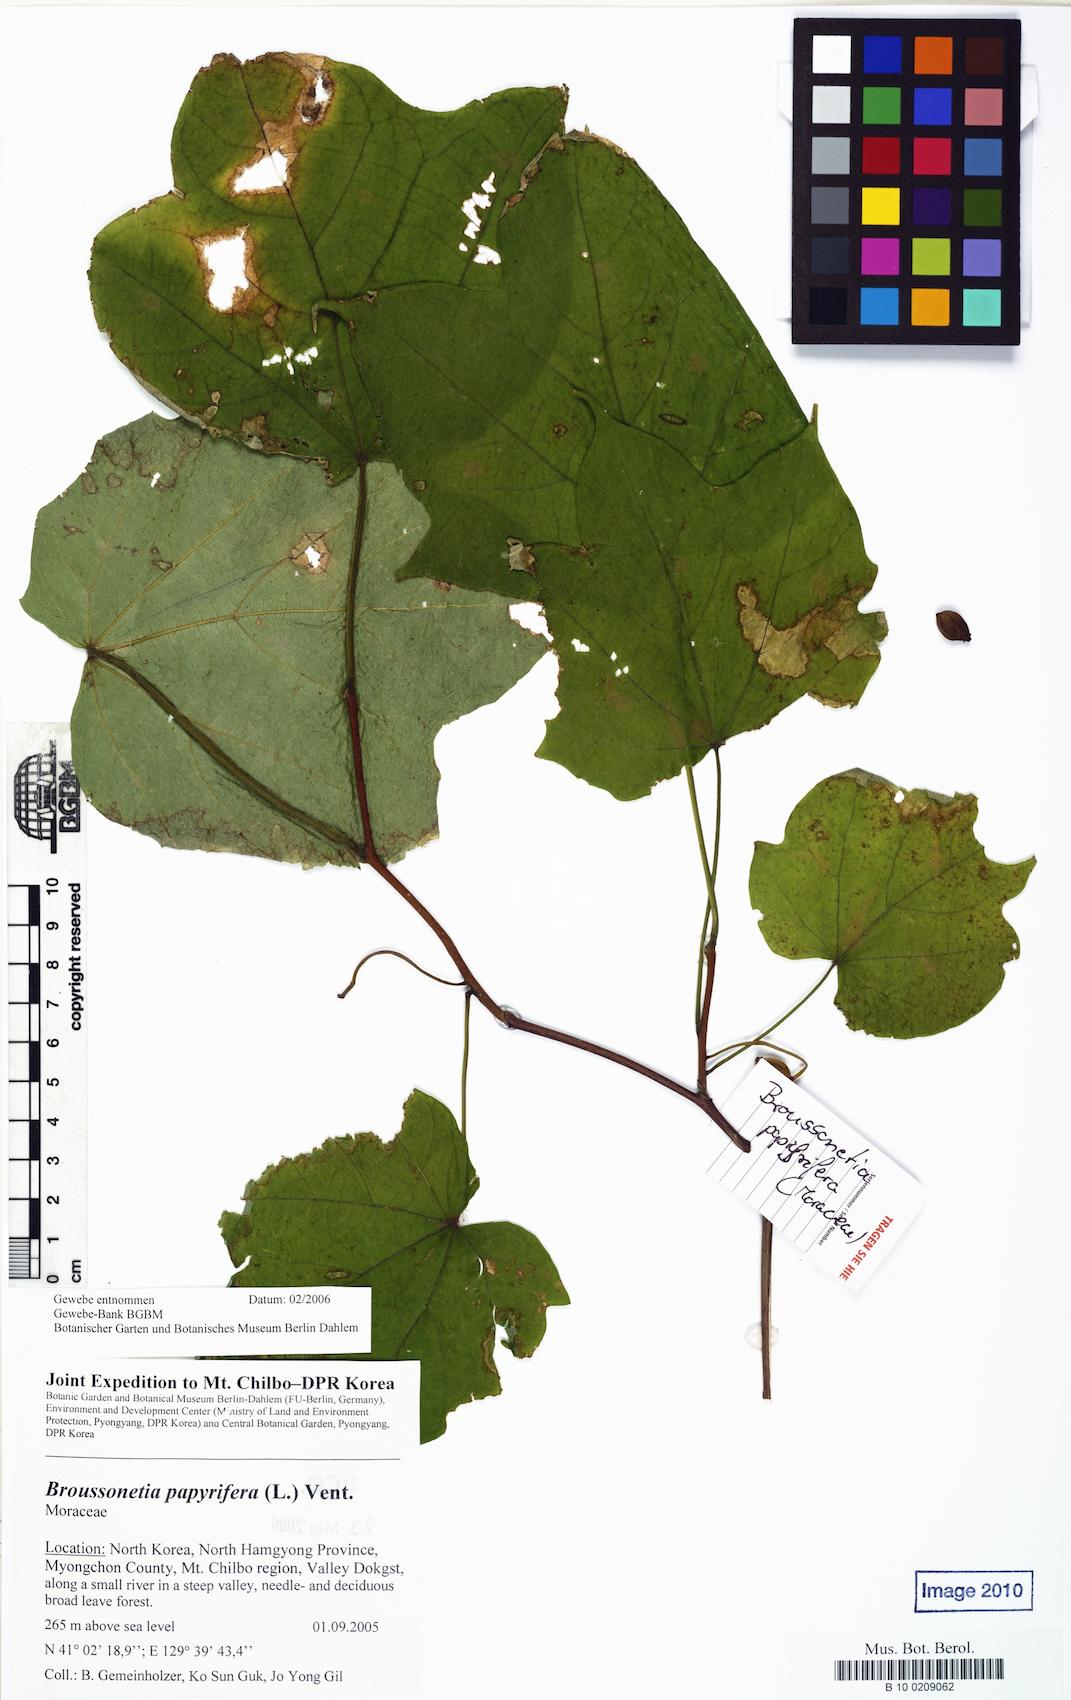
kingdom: Plantae
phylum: Tracheophyta
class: Magnoliopsida
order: Rosales
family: Moraceae
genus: Broussonetia
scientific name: Broussonetia papyrifera
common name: Paper mulberry
